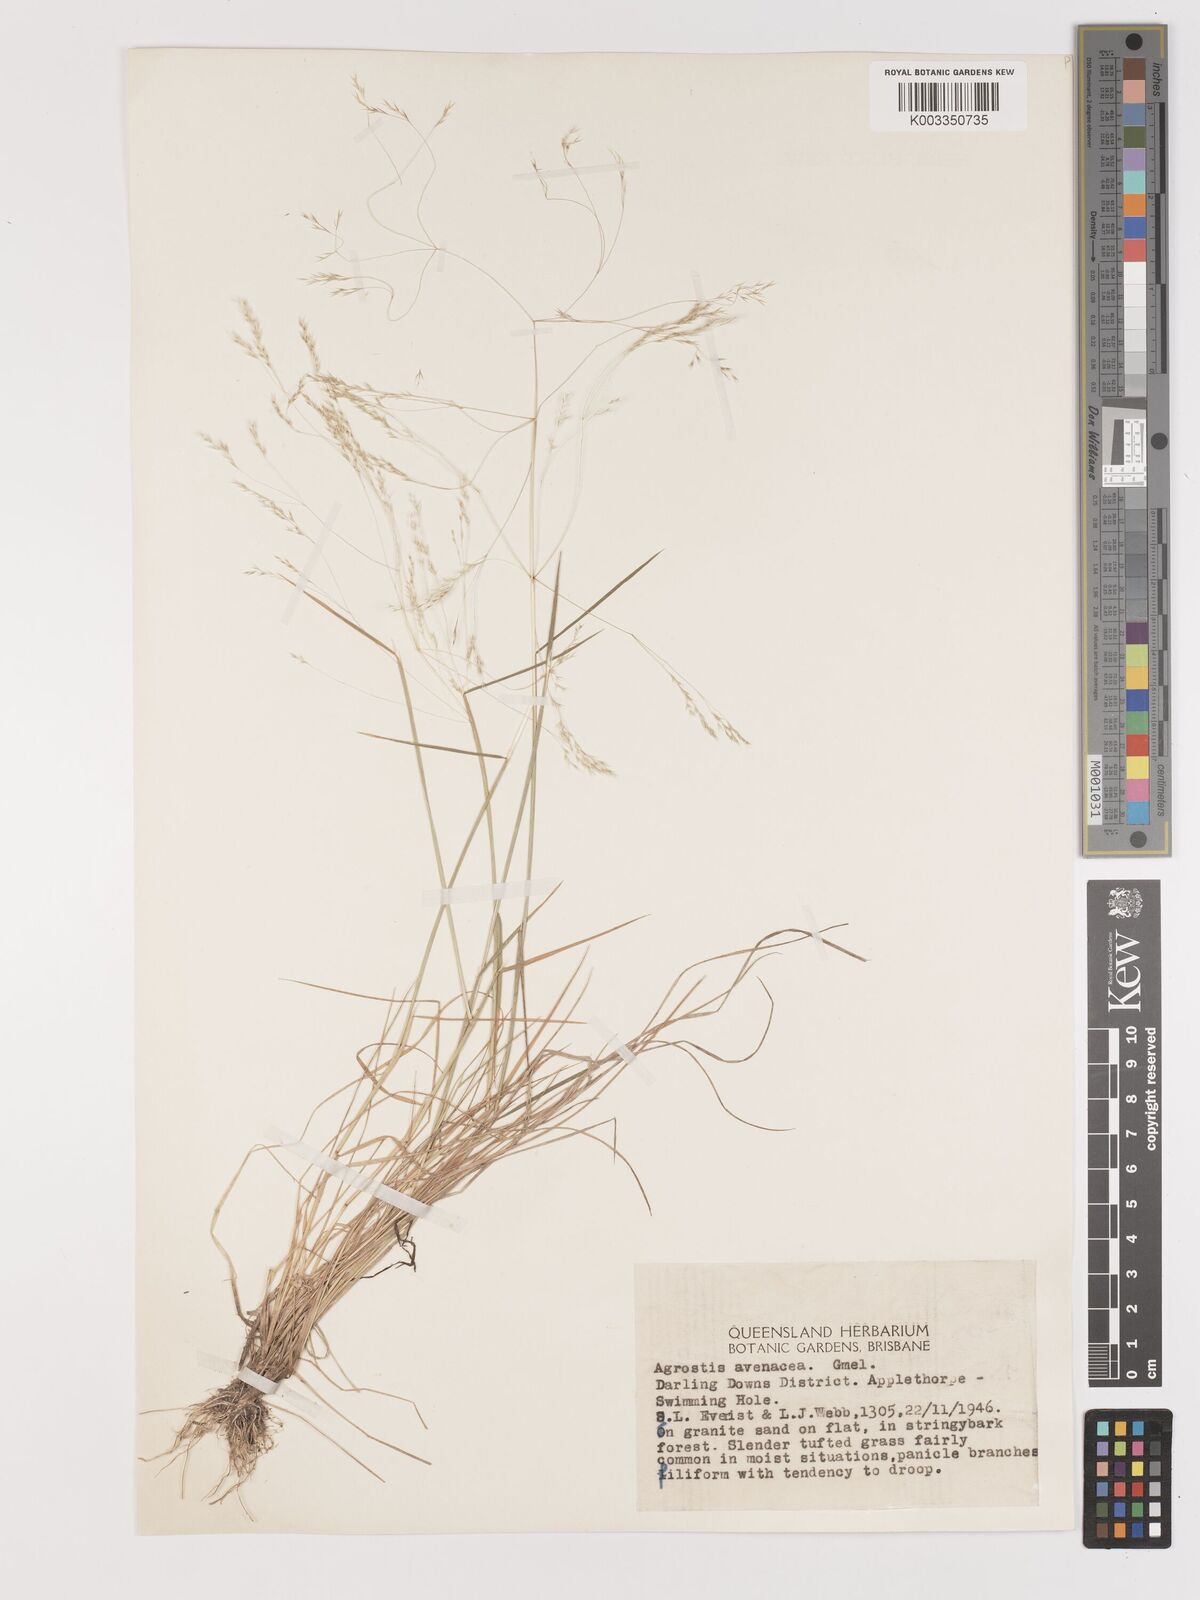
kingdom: Plantae
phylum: Tracheophyta
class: Liliopsida
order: Poales
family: Poaceae
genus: Lachnagrostis
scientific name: Lachnagrostis filiformis
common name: Bentgrass
